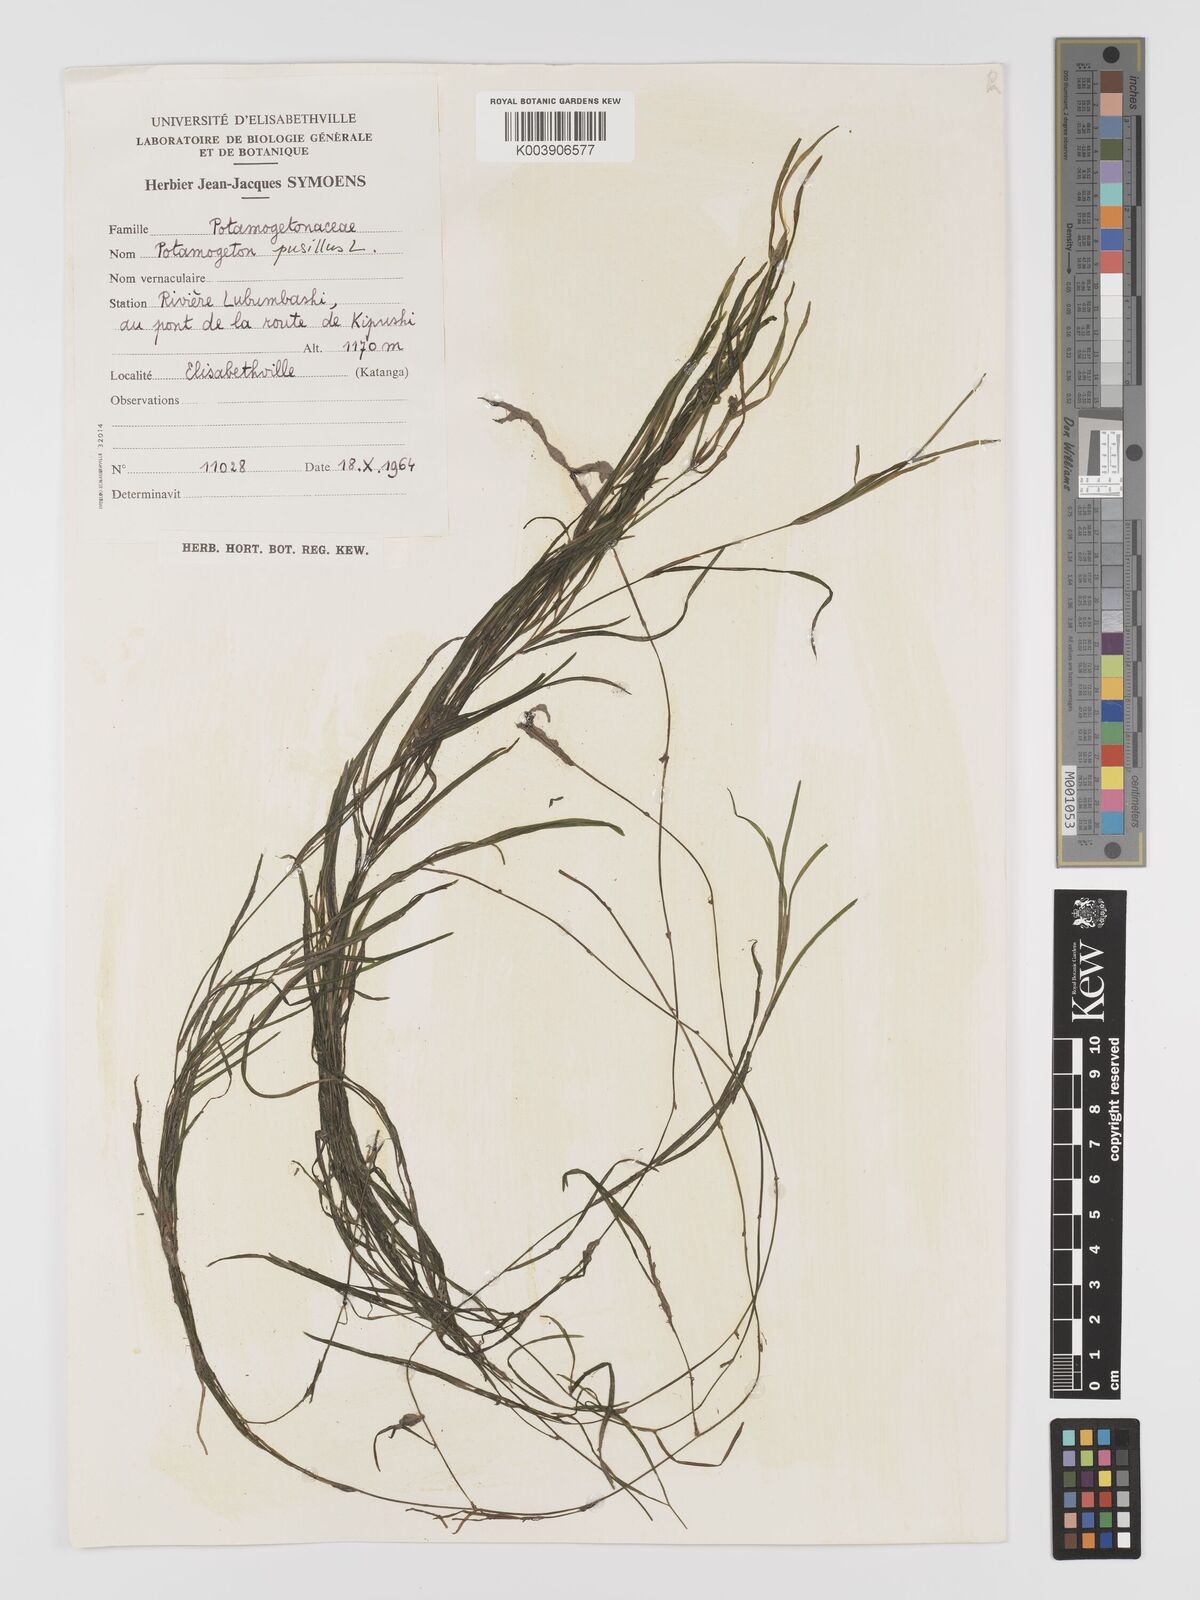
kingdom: Plantae
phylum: Tracheophyta
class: Liliopsida
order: Alismatales
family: Potamogetonaceae
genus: Potamogeton
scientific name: Potamogeton pusillus
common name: Lesser pondweed
